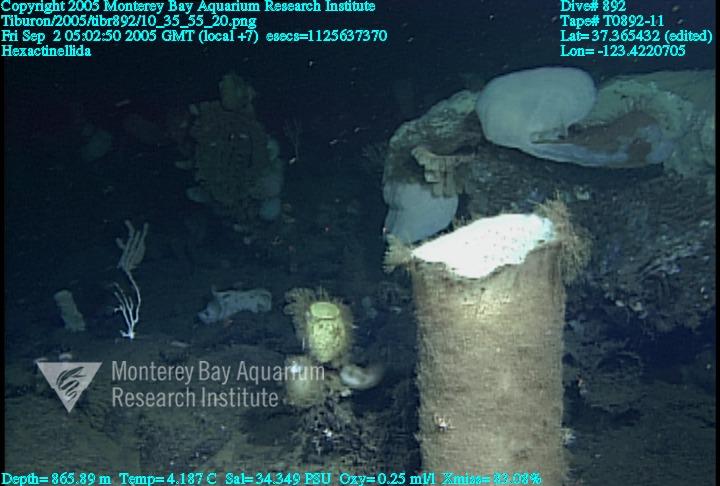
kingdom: Animalia
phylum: Porifera
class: Hexactinellida
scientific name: Hexactinellida
